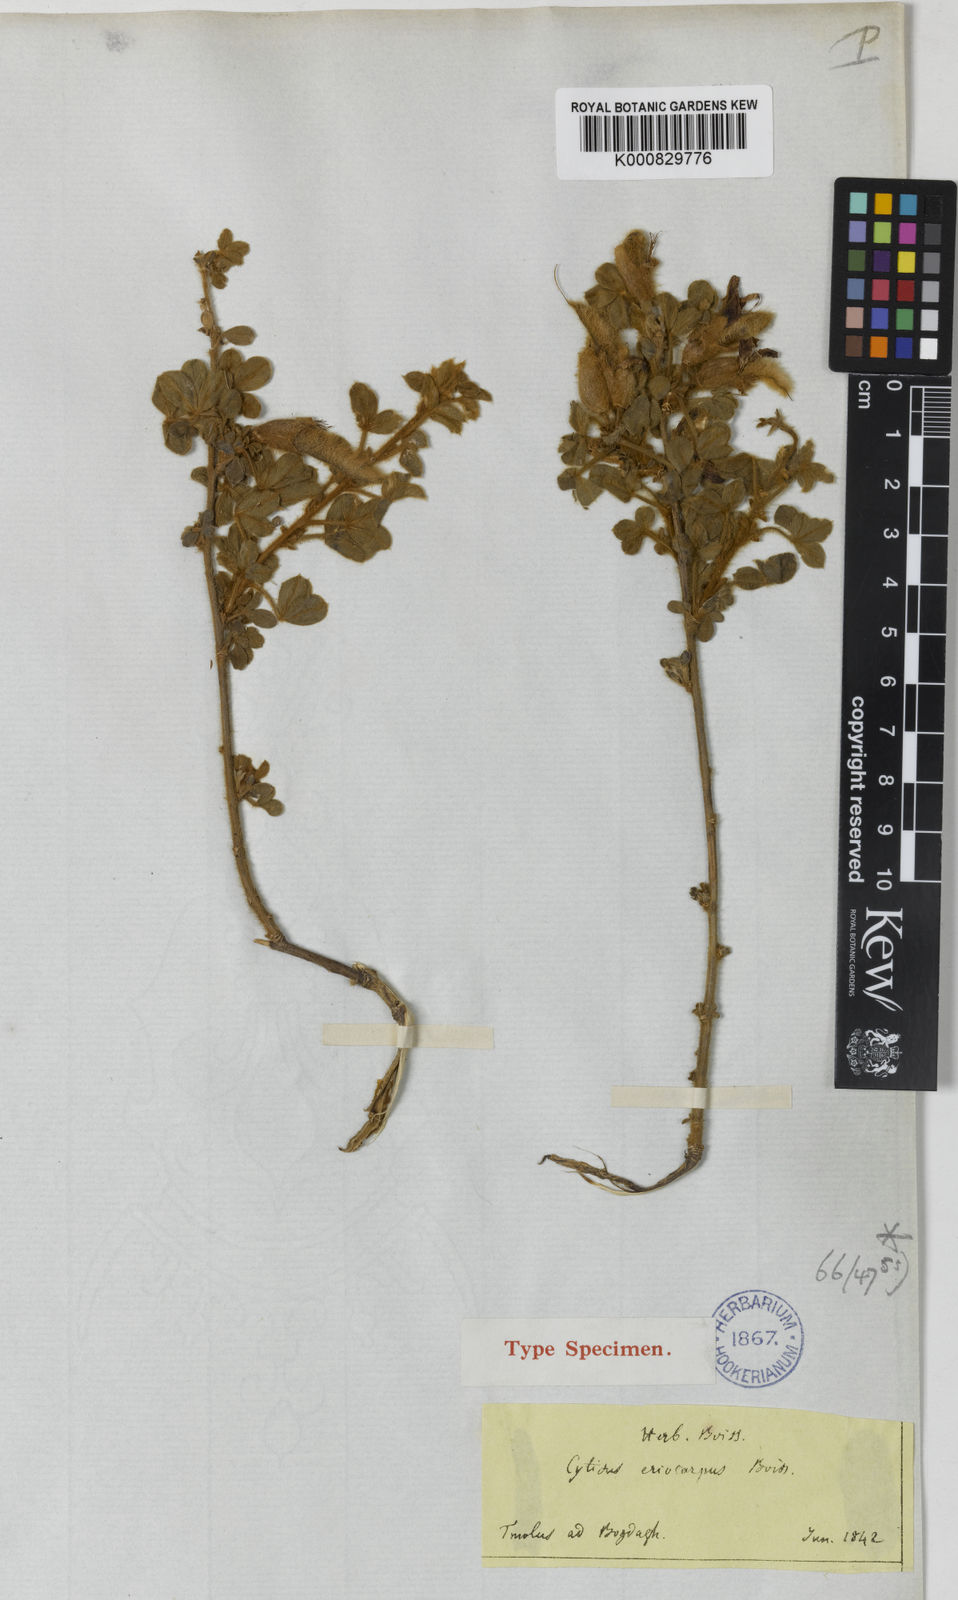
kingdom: Plantae
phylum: Tracheophyta
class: Magnoliopsida
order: Fabales
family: Fabaceae
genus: Chamaecytisus
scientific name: Chamaecytisus eriocarpus
